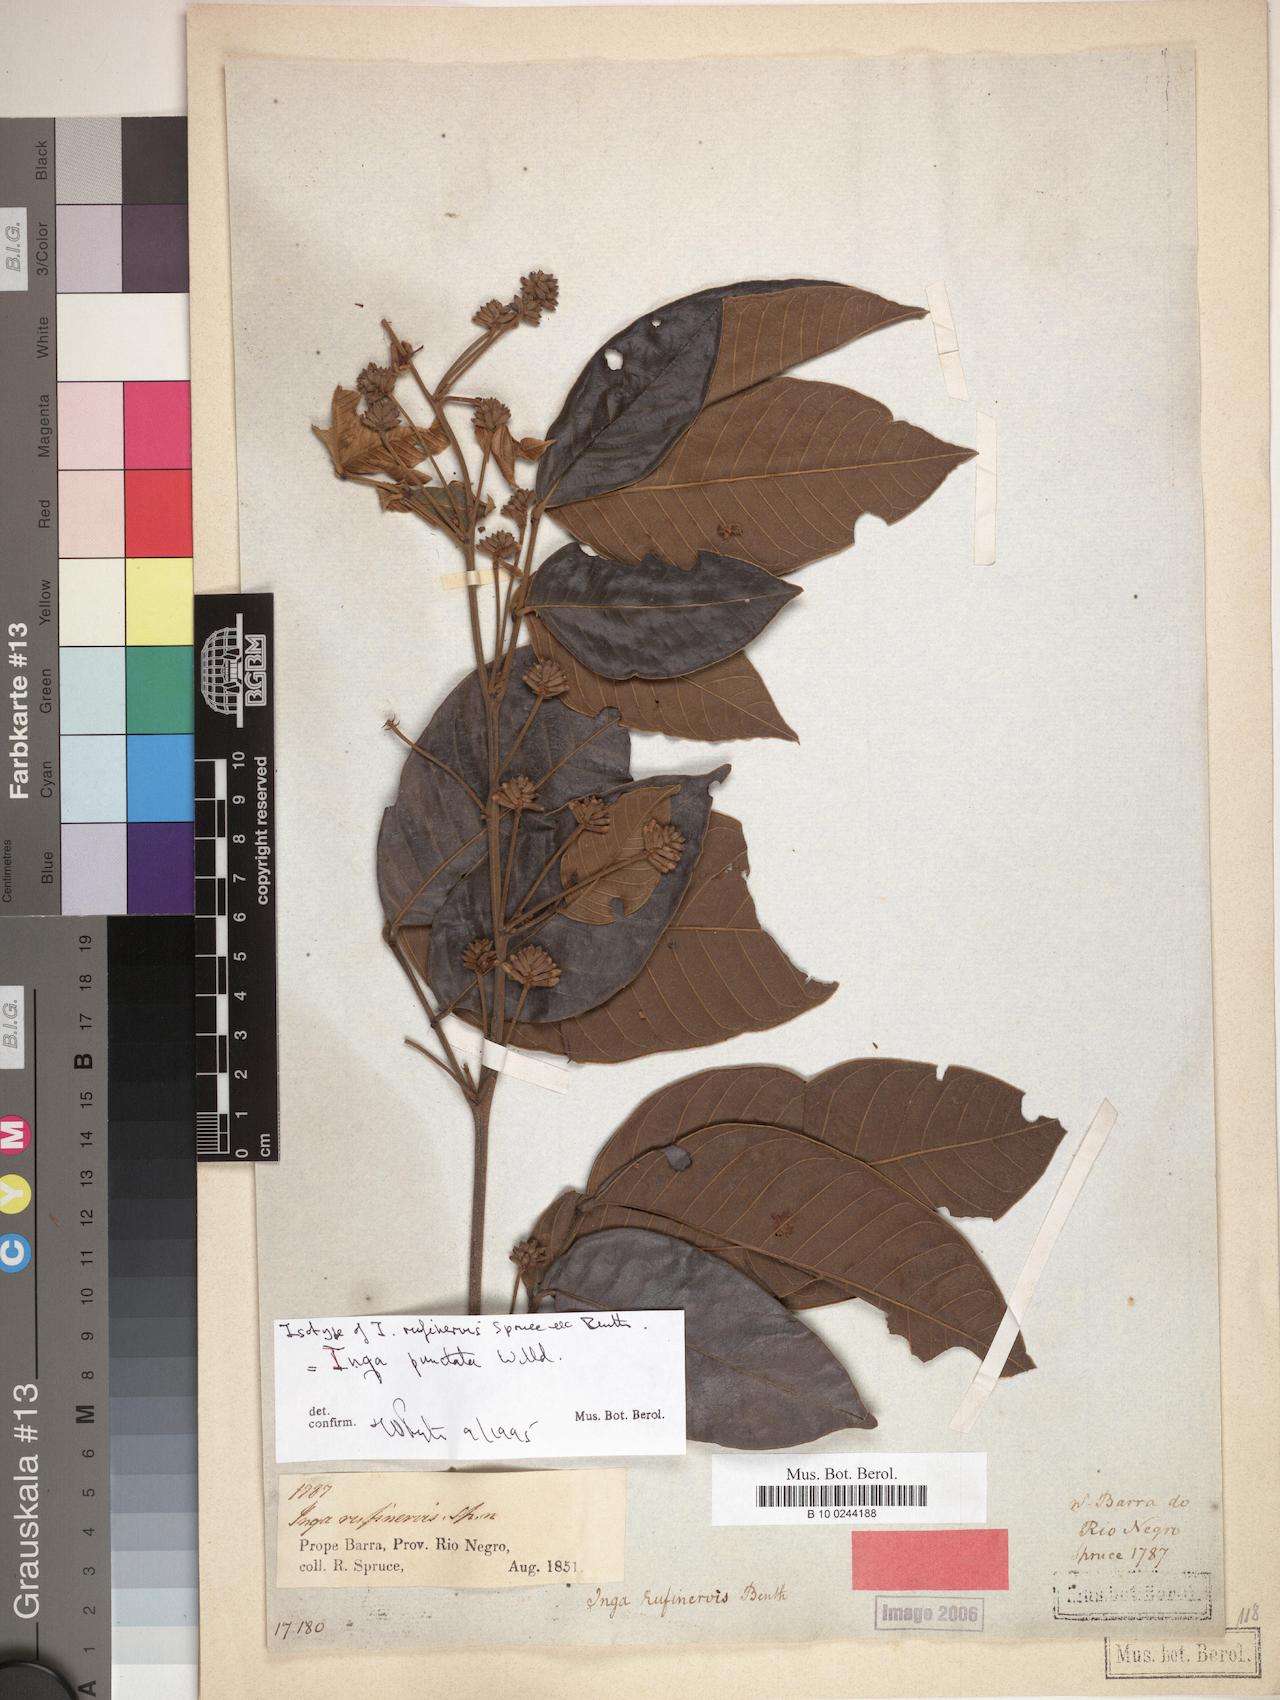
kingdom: Plantae
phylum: Tracheophyta
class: Magnoliopsida
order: Fabales
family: Fabaceae
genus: Inga
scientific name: Inga punctata
